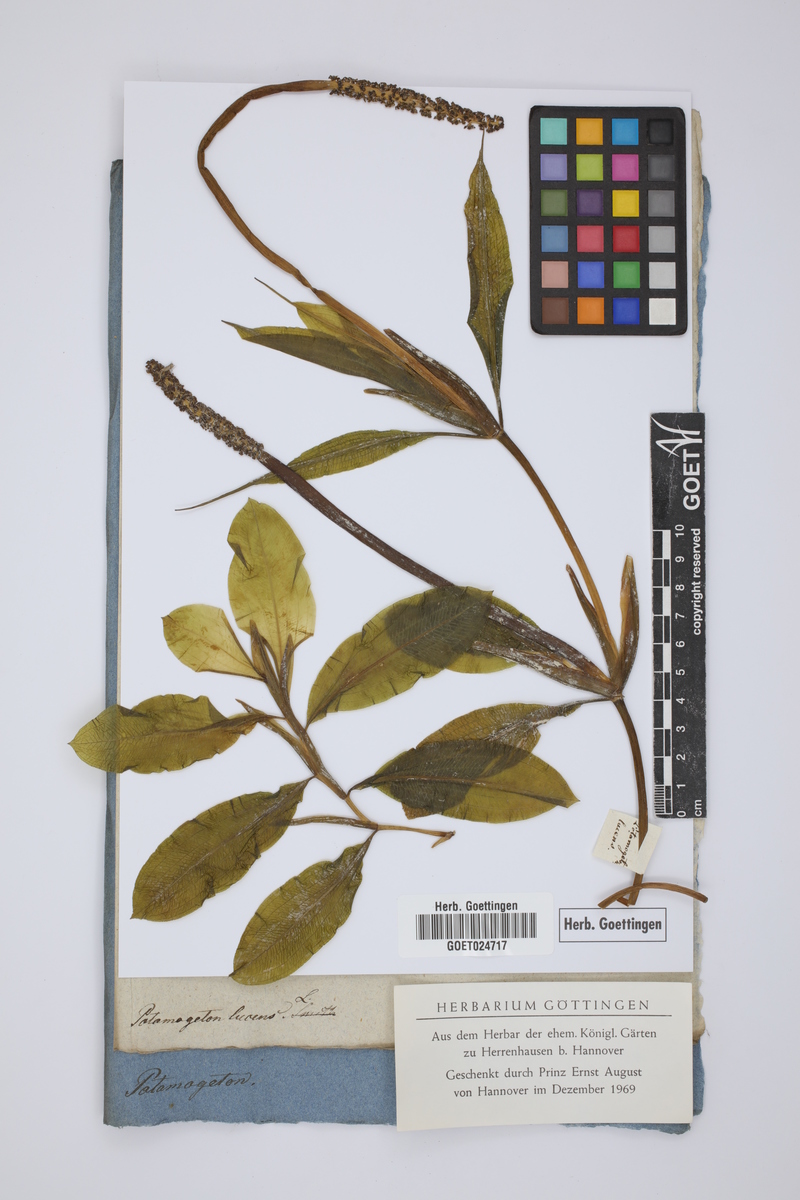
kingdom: Plantae
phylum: Tracheophyta
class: Liliopsida
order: Alismatales
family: Potamogetonaceae
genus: Potamogeton
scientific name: Potamogeton lucens
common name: Shining pondweed
